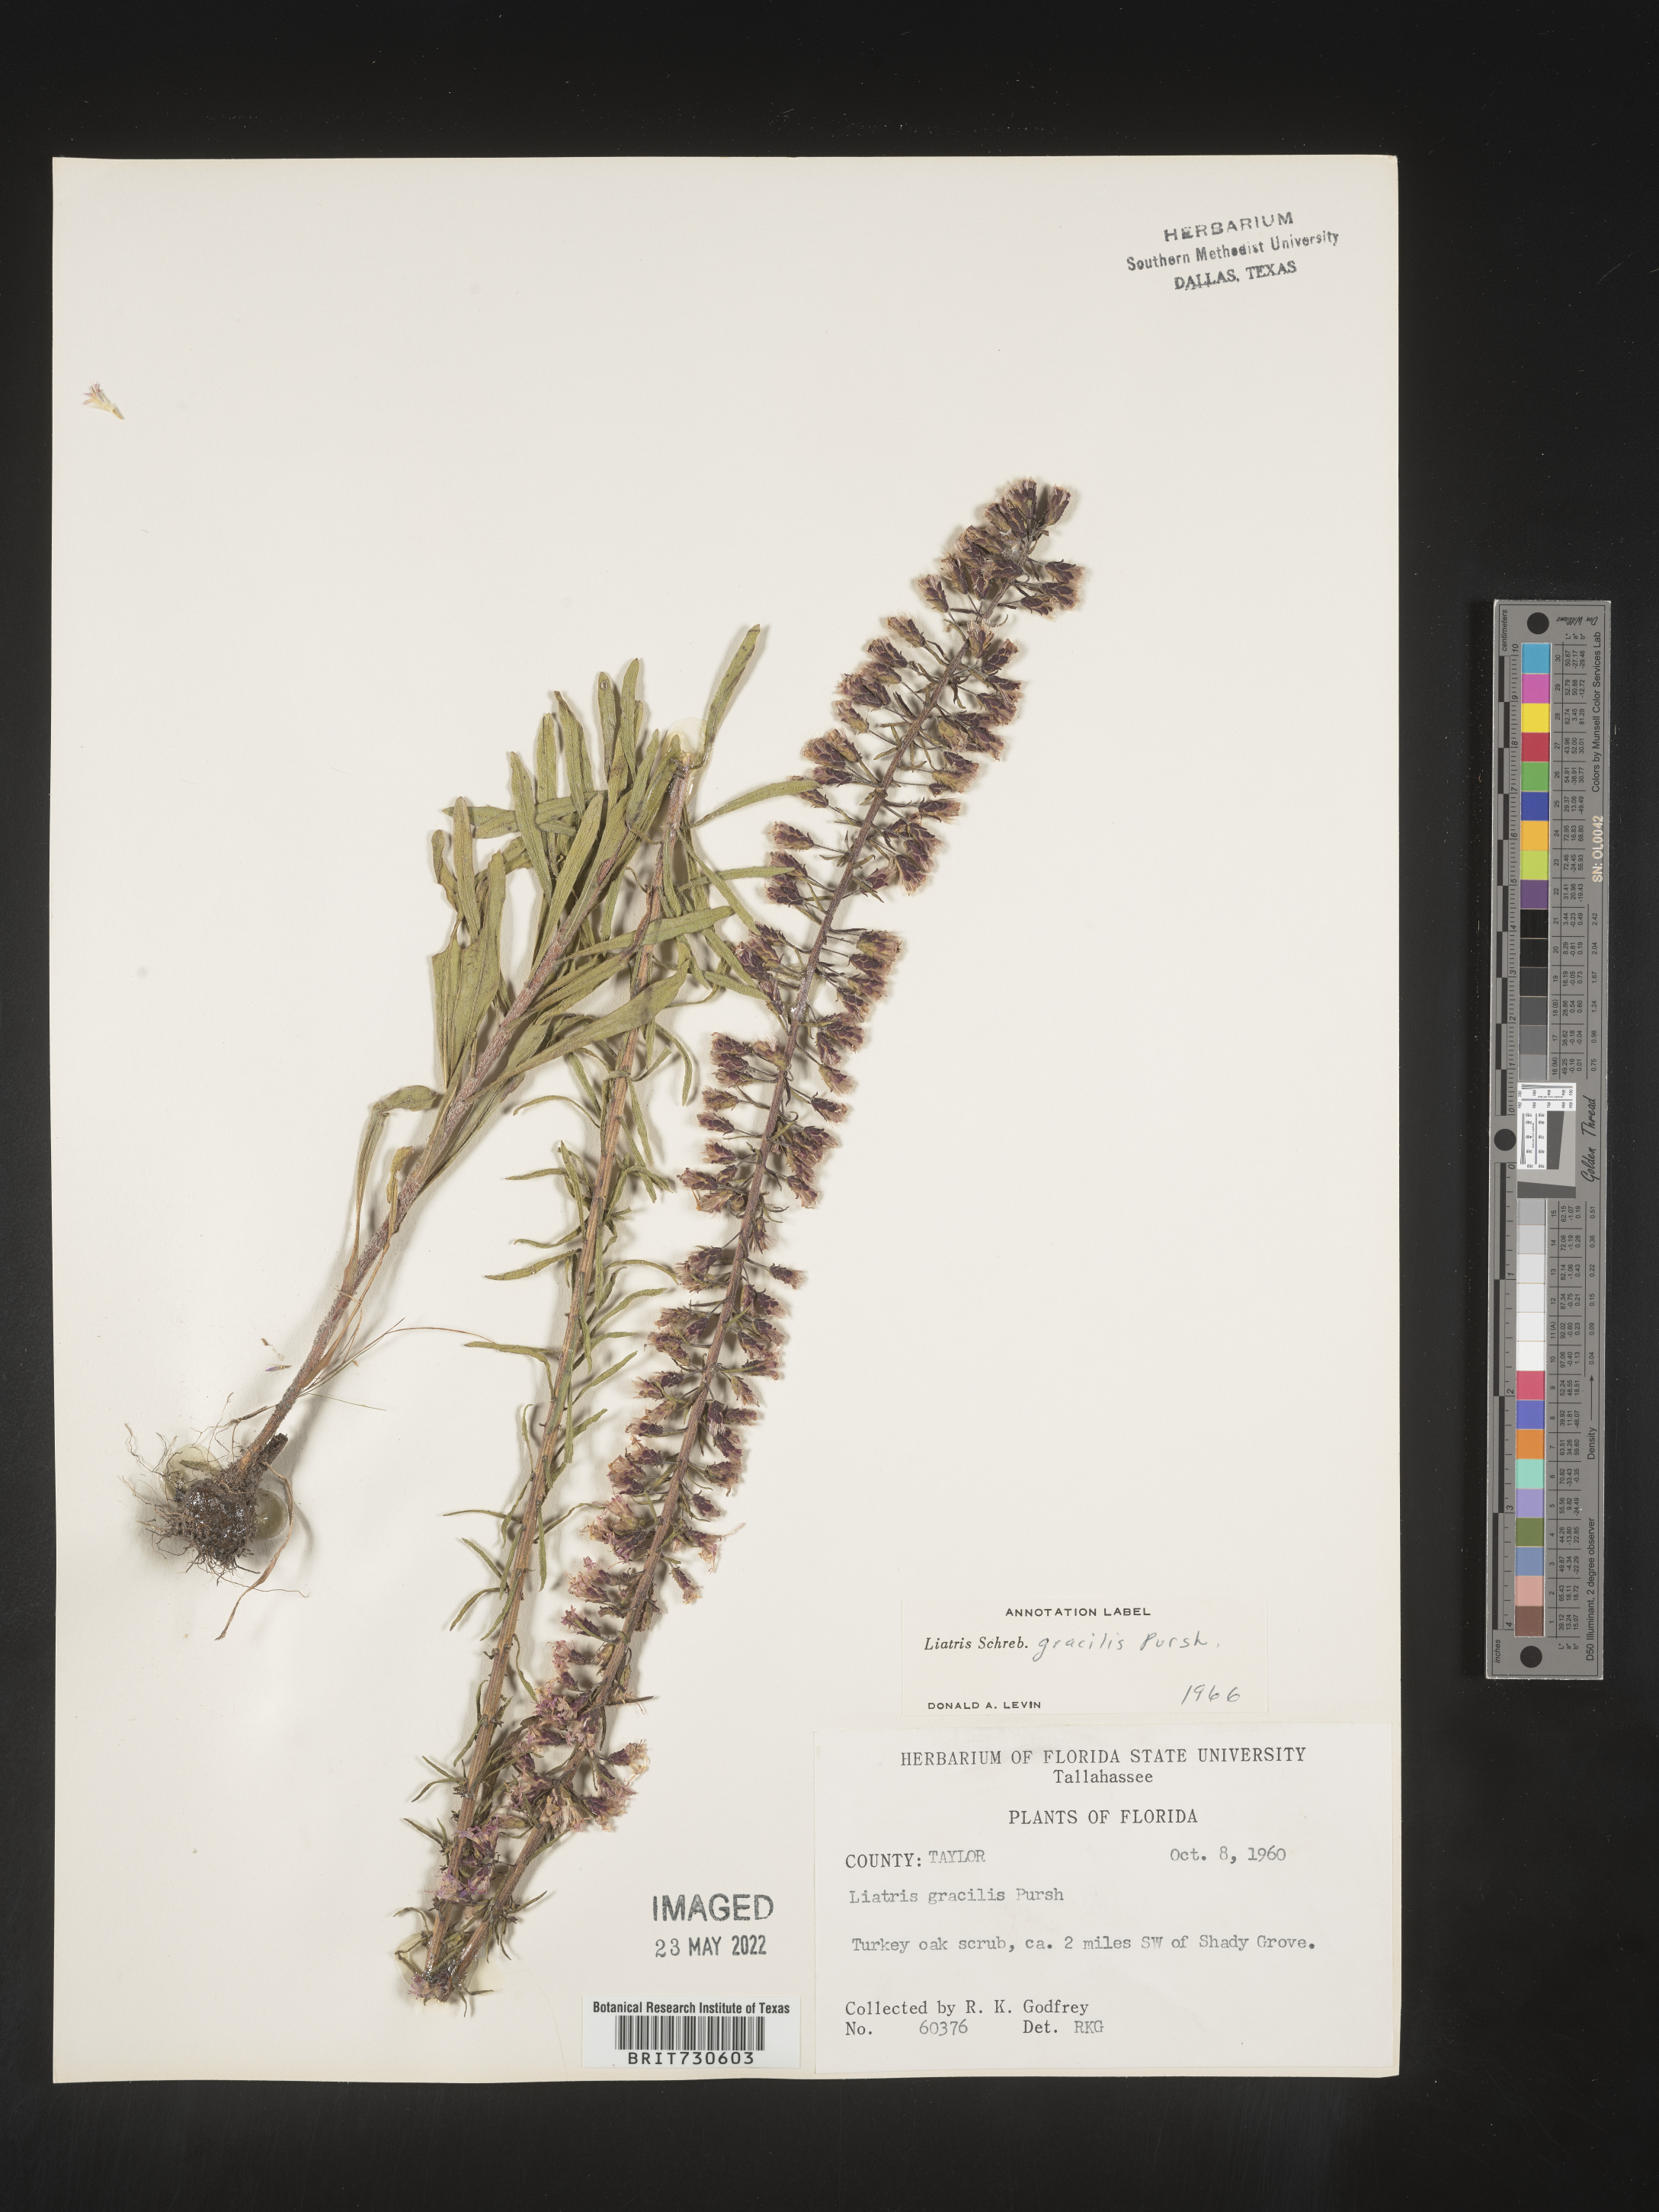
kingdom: Plantae
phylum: Tracheophyta
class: Magnoliopsida
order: Asterales
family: Asteraceae
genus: Liatris
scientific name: Liatris gracilis
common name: Slender gayfeather
